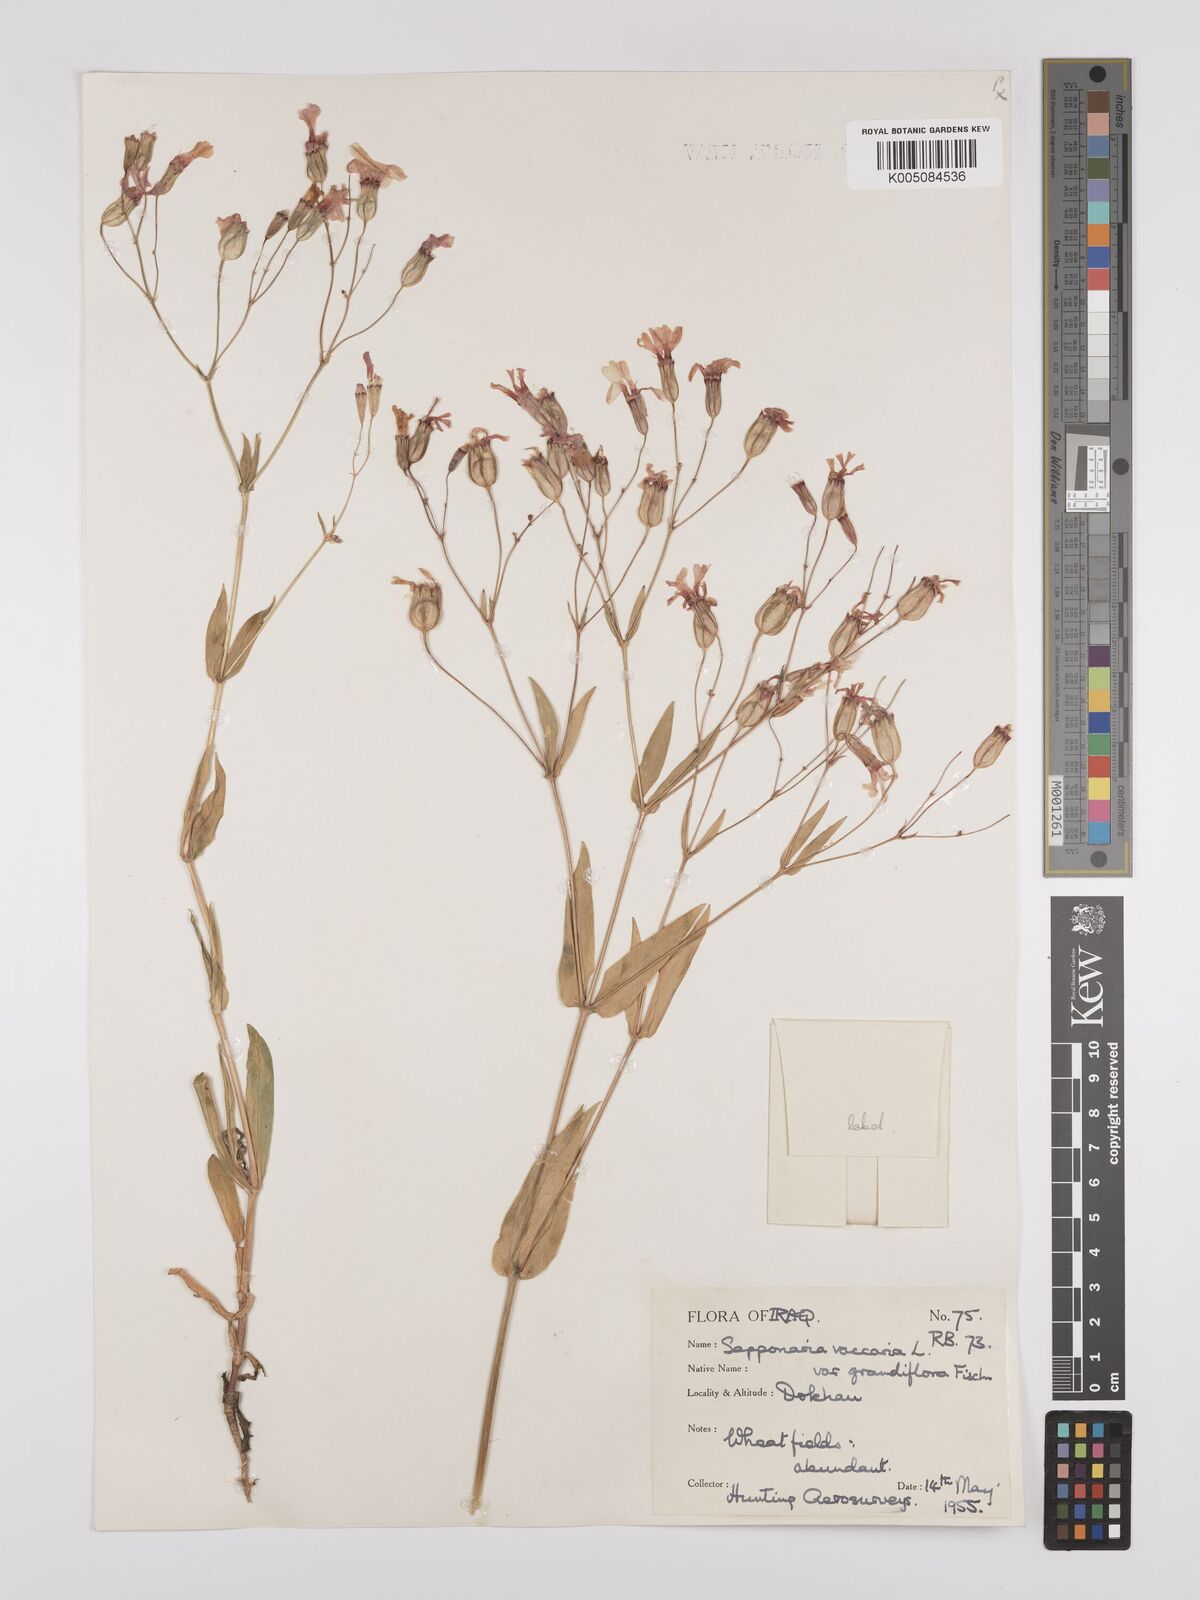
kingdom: Plantae
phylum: Tracheophyta
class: Magnoliopsida
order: Caryophyllales
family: Caryophyllaceae
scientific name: Caryophyllaceae
